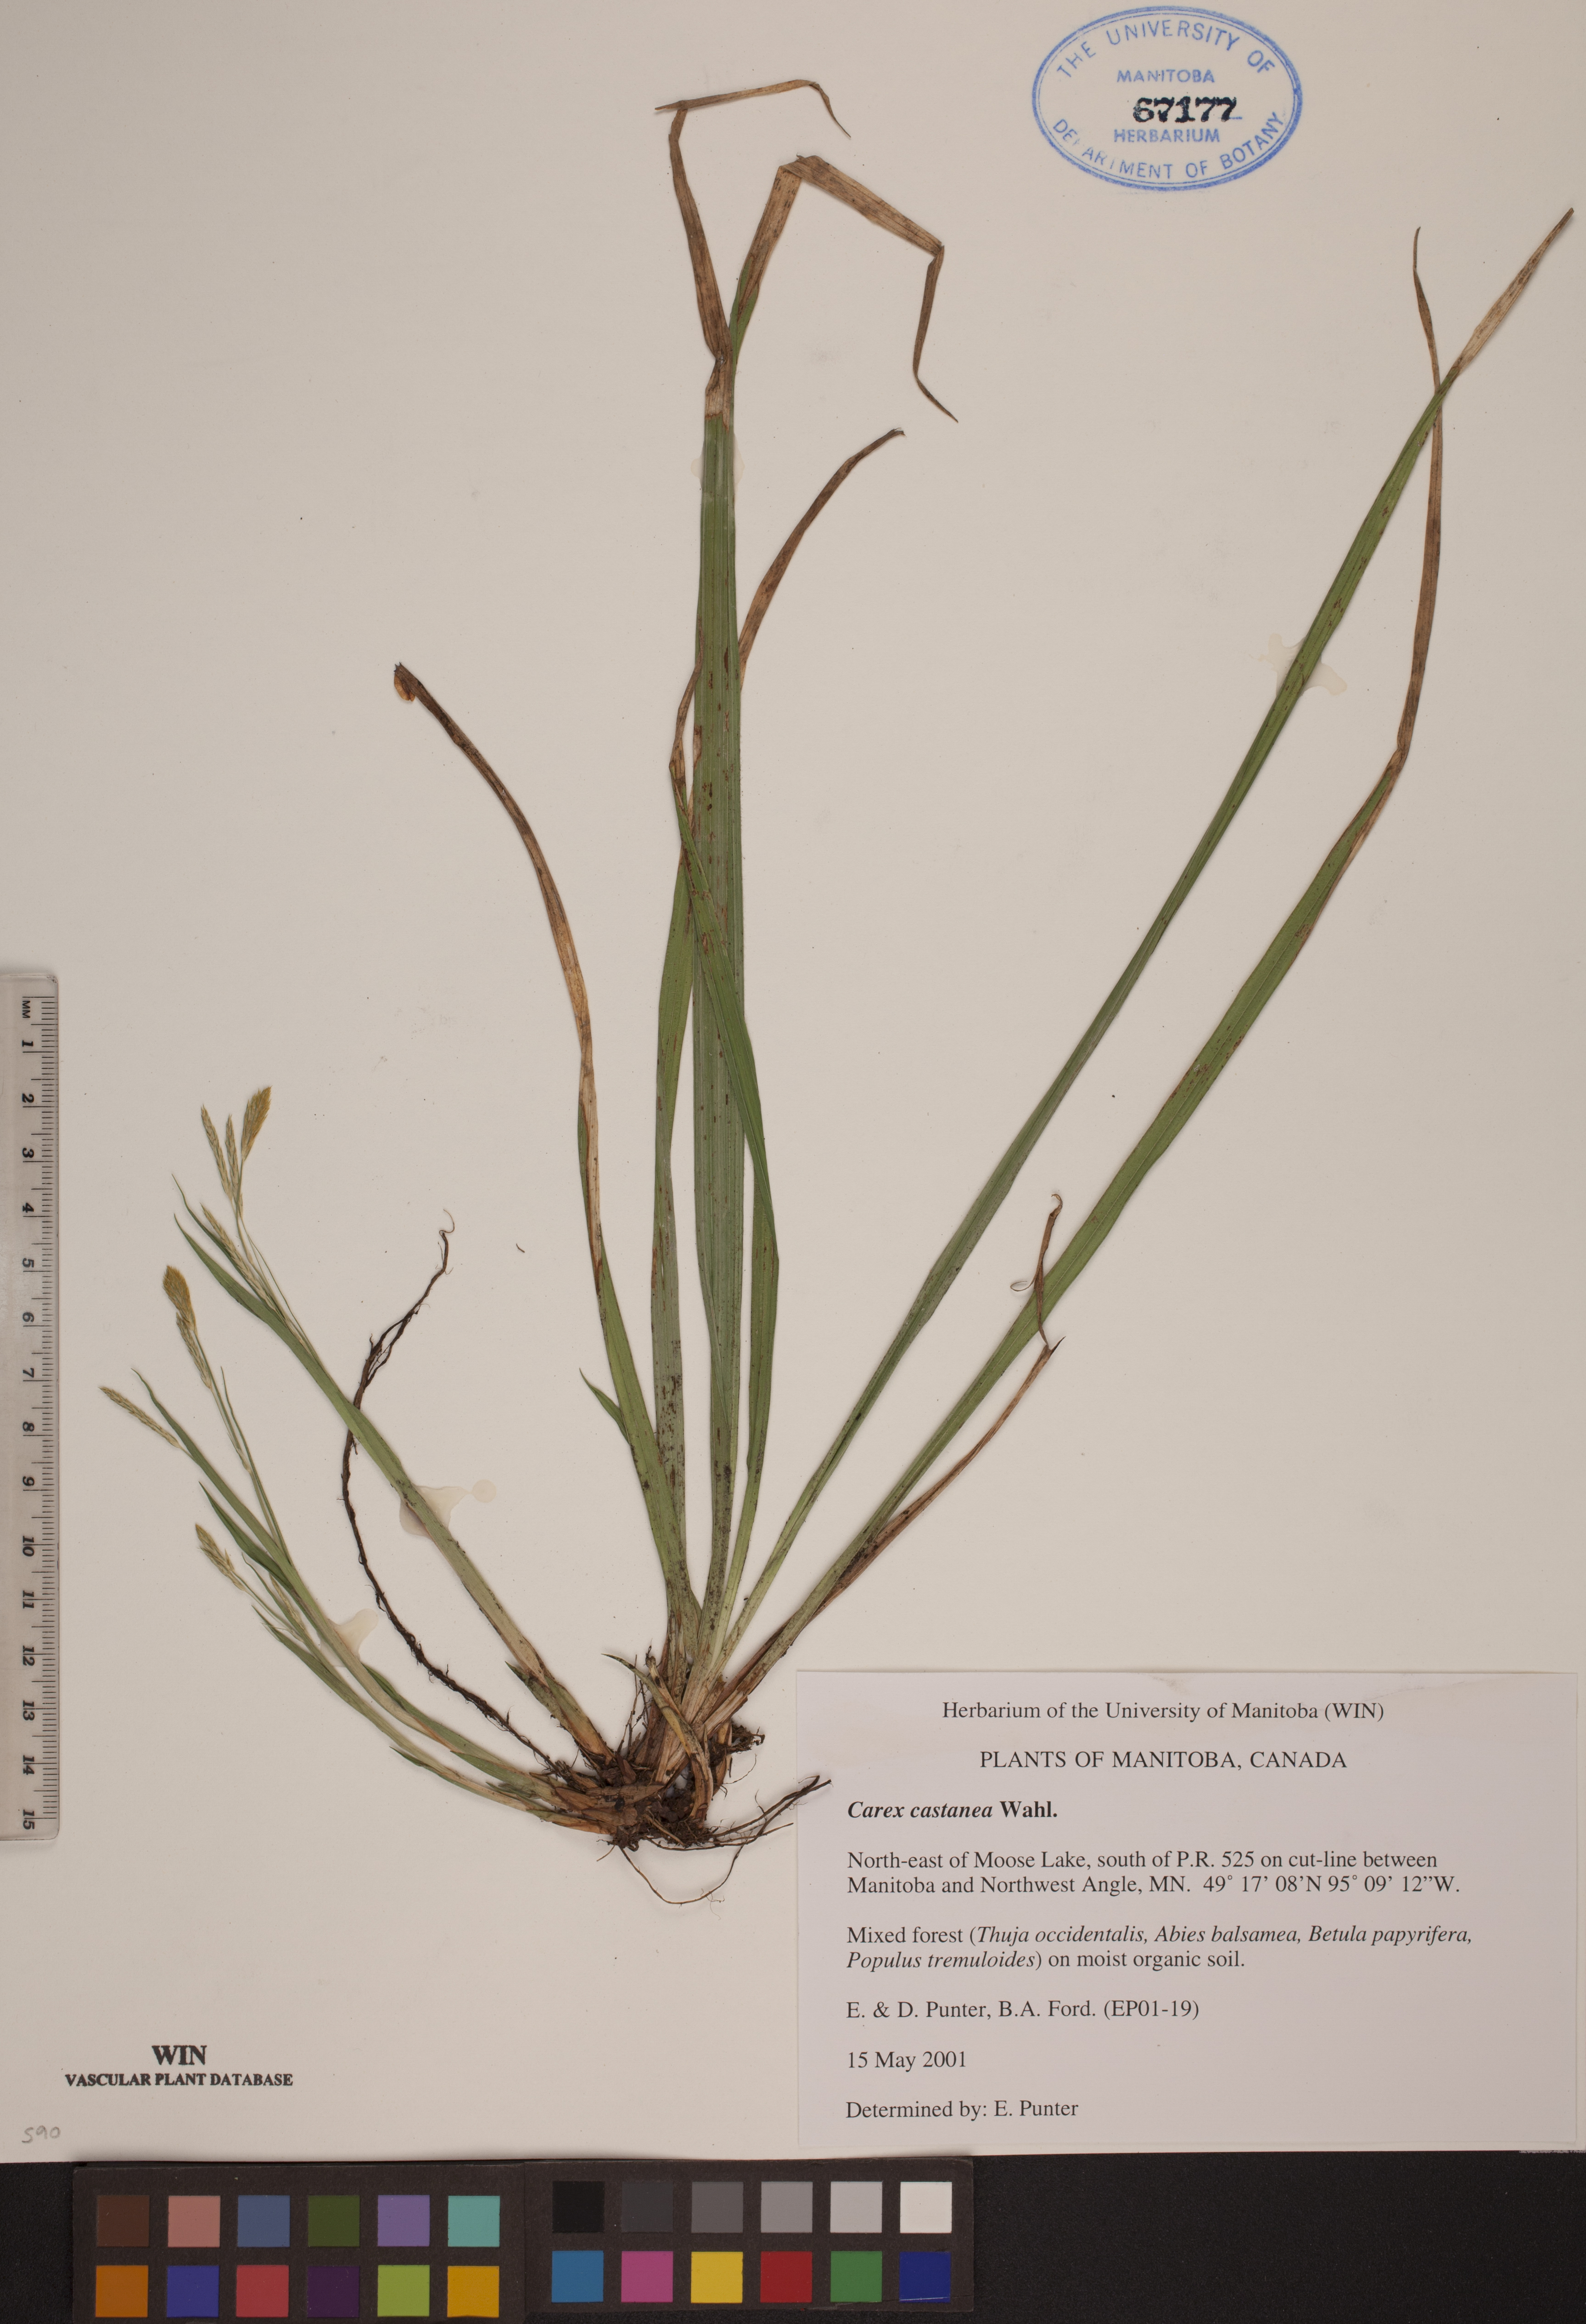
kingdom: Plantae
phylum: Tracheophyta
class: Liliopsida
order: Poales
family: Cyperaceae
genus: Carex
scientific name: Carex castanea
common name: Chestnut sedge
